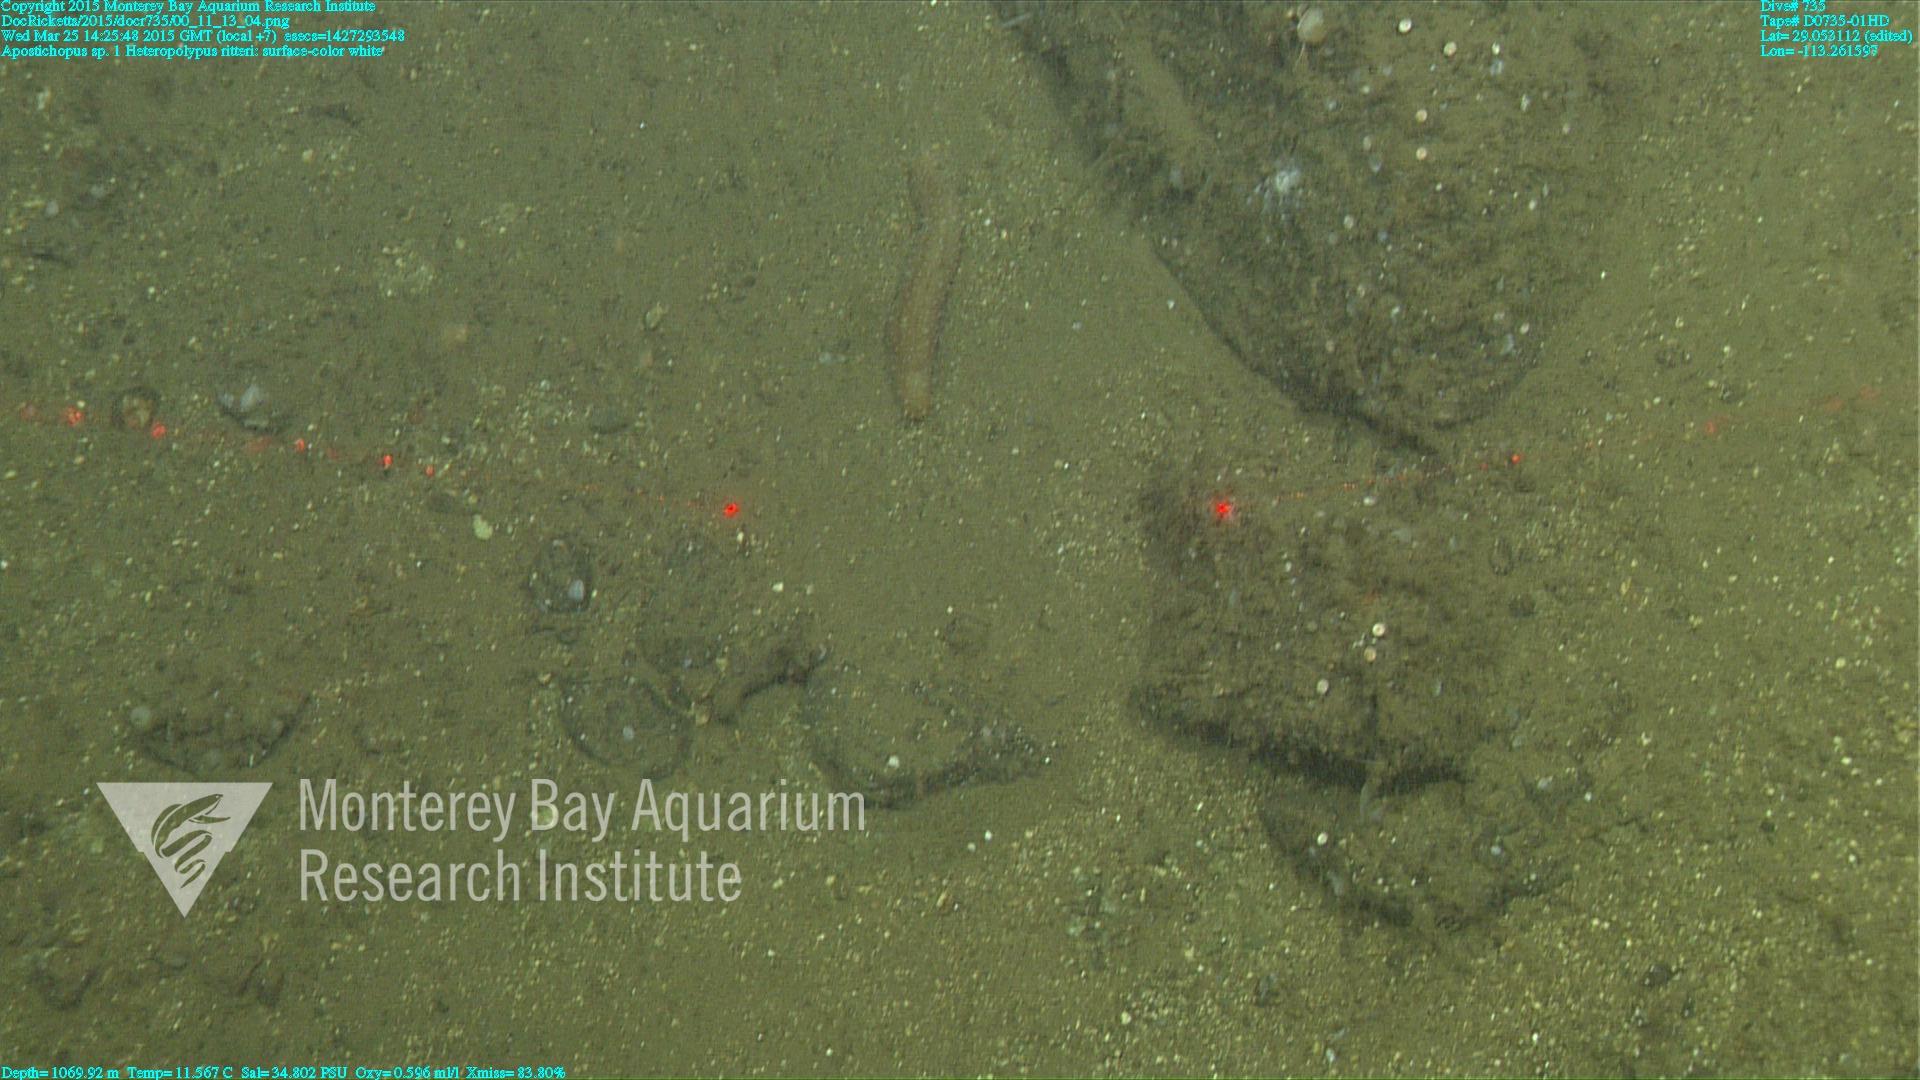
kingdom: Animalia
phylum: Cnidaria
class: Anthozoa
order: Scleralcyonacea
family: Coralliidae
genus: Heteropolypus
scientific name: Heteropolypus ritteri
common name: Ritter's soft coral
